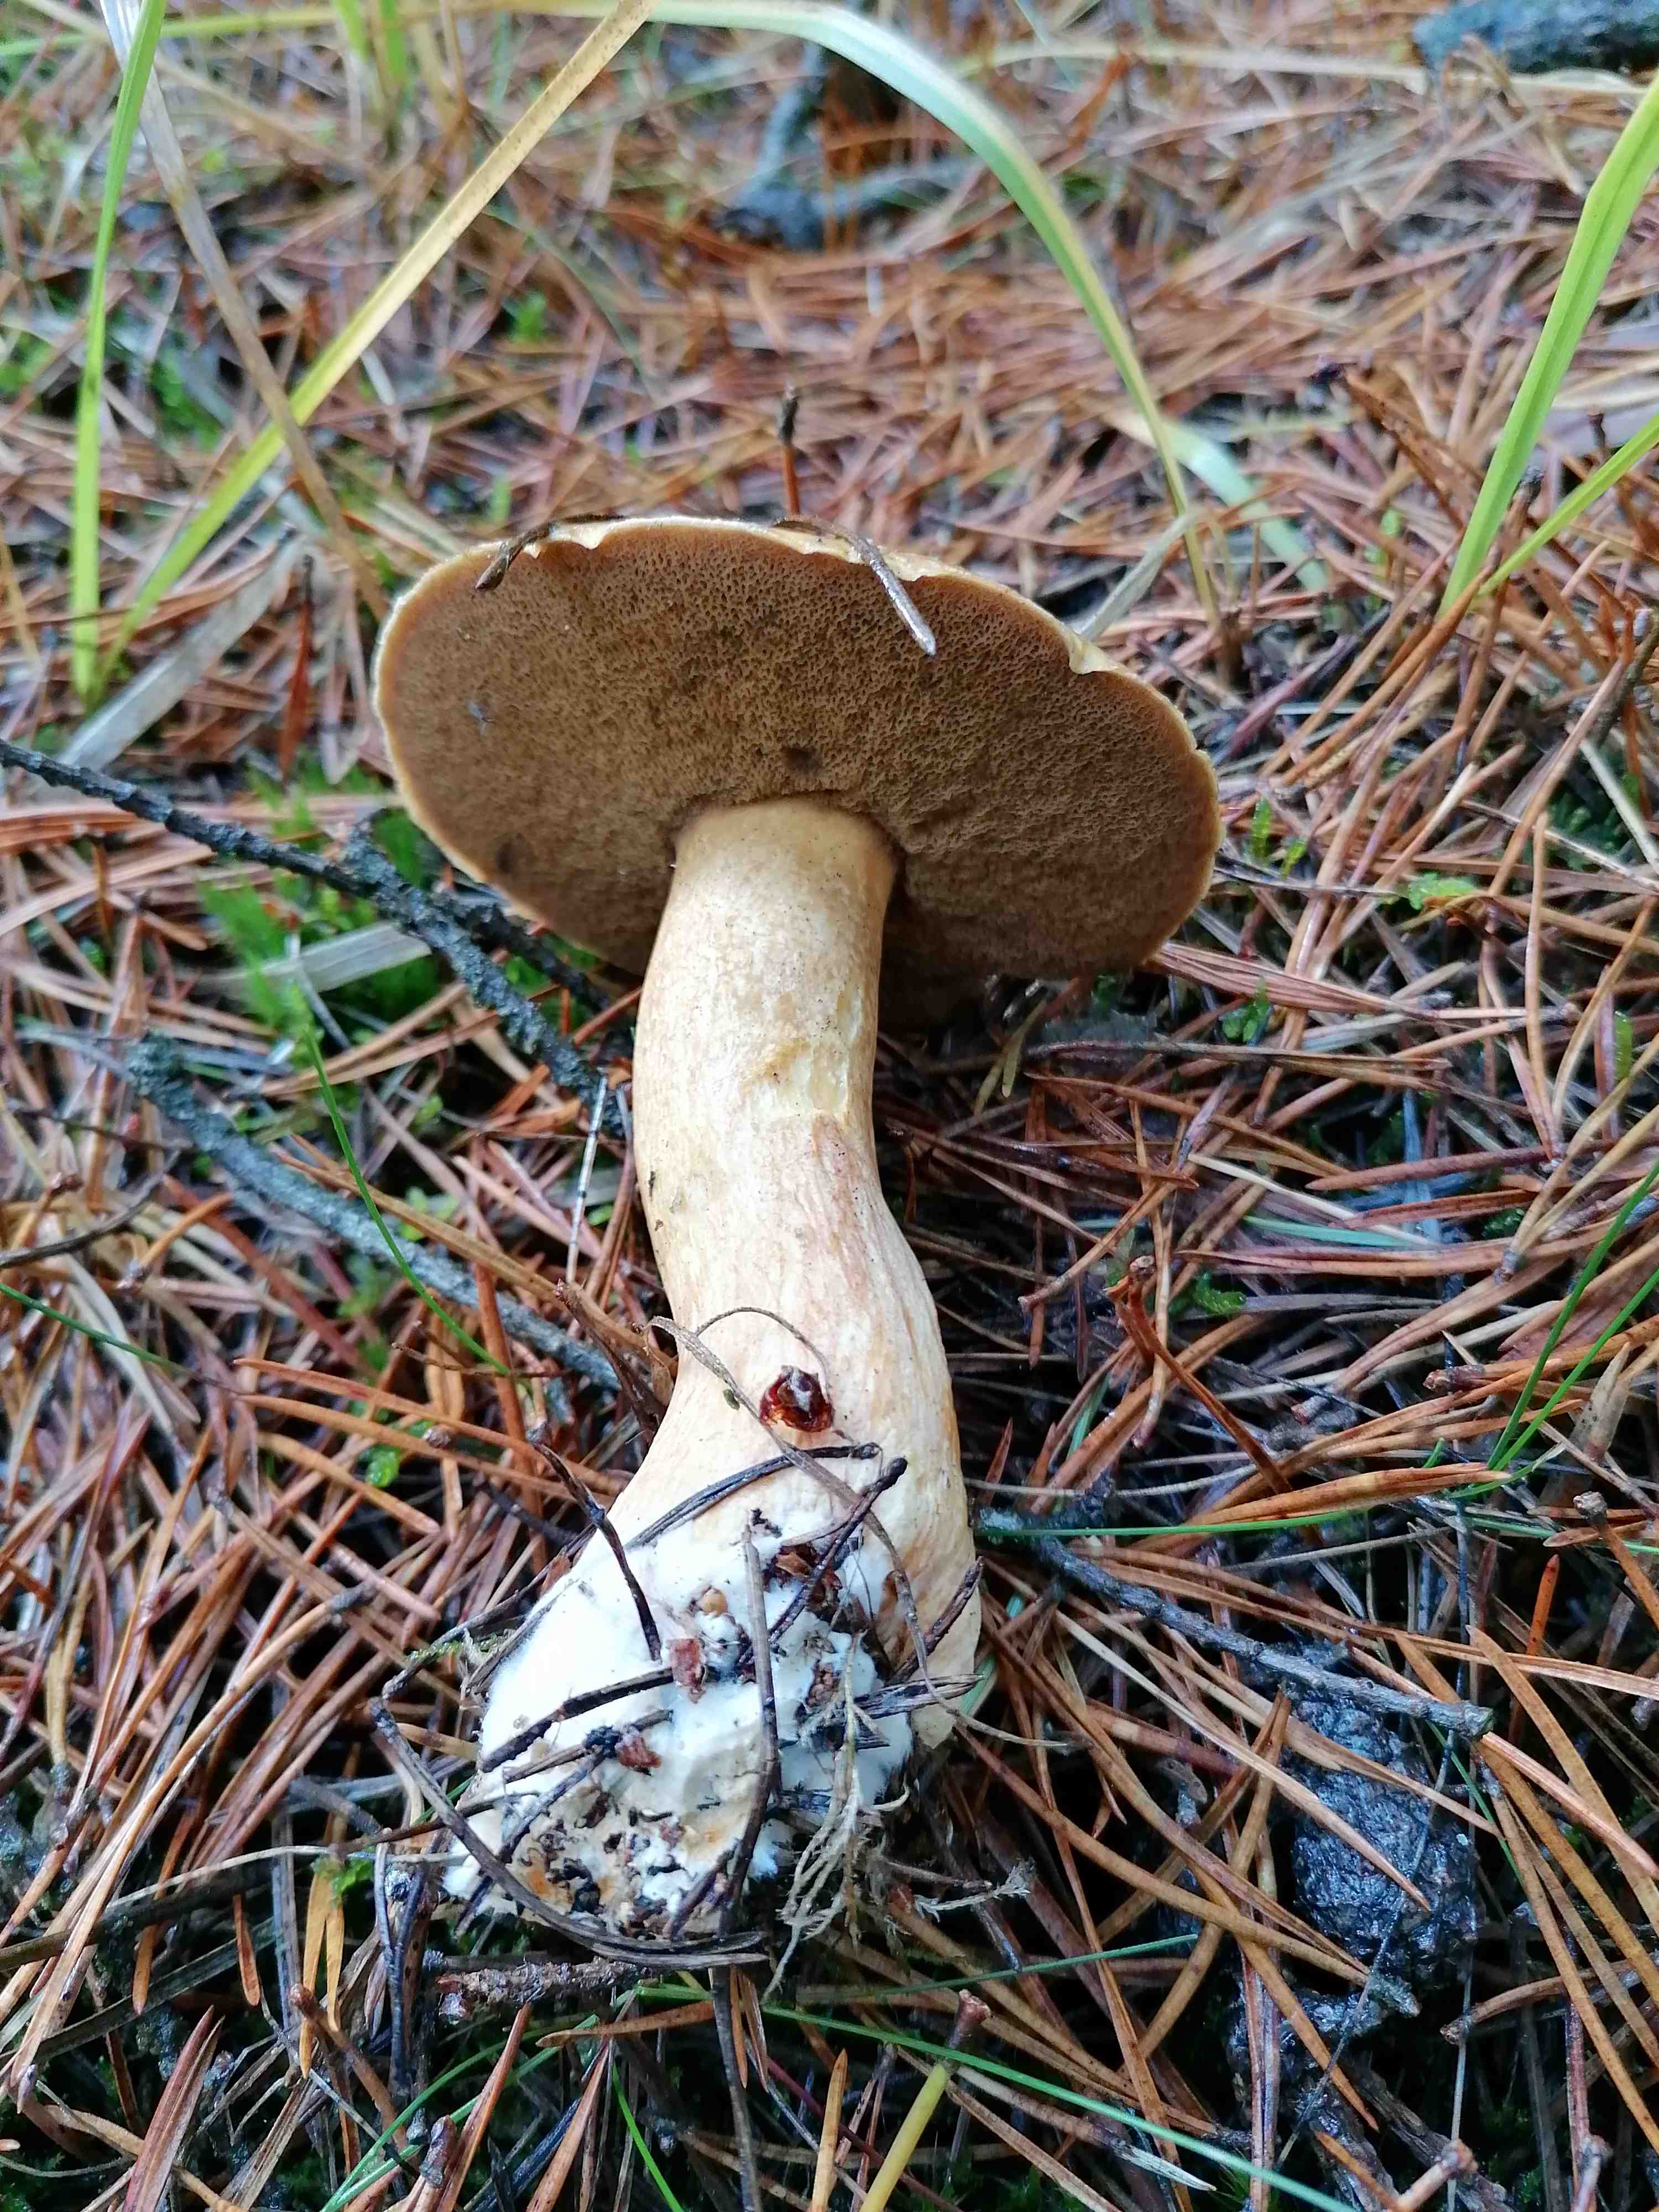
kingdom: Fungi
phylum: Basidiomycota
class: Agaricomycetes
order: Boletales
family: Suillaceae
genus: Suillus
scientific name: Suillus variegatus
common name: broget slimrørhat
